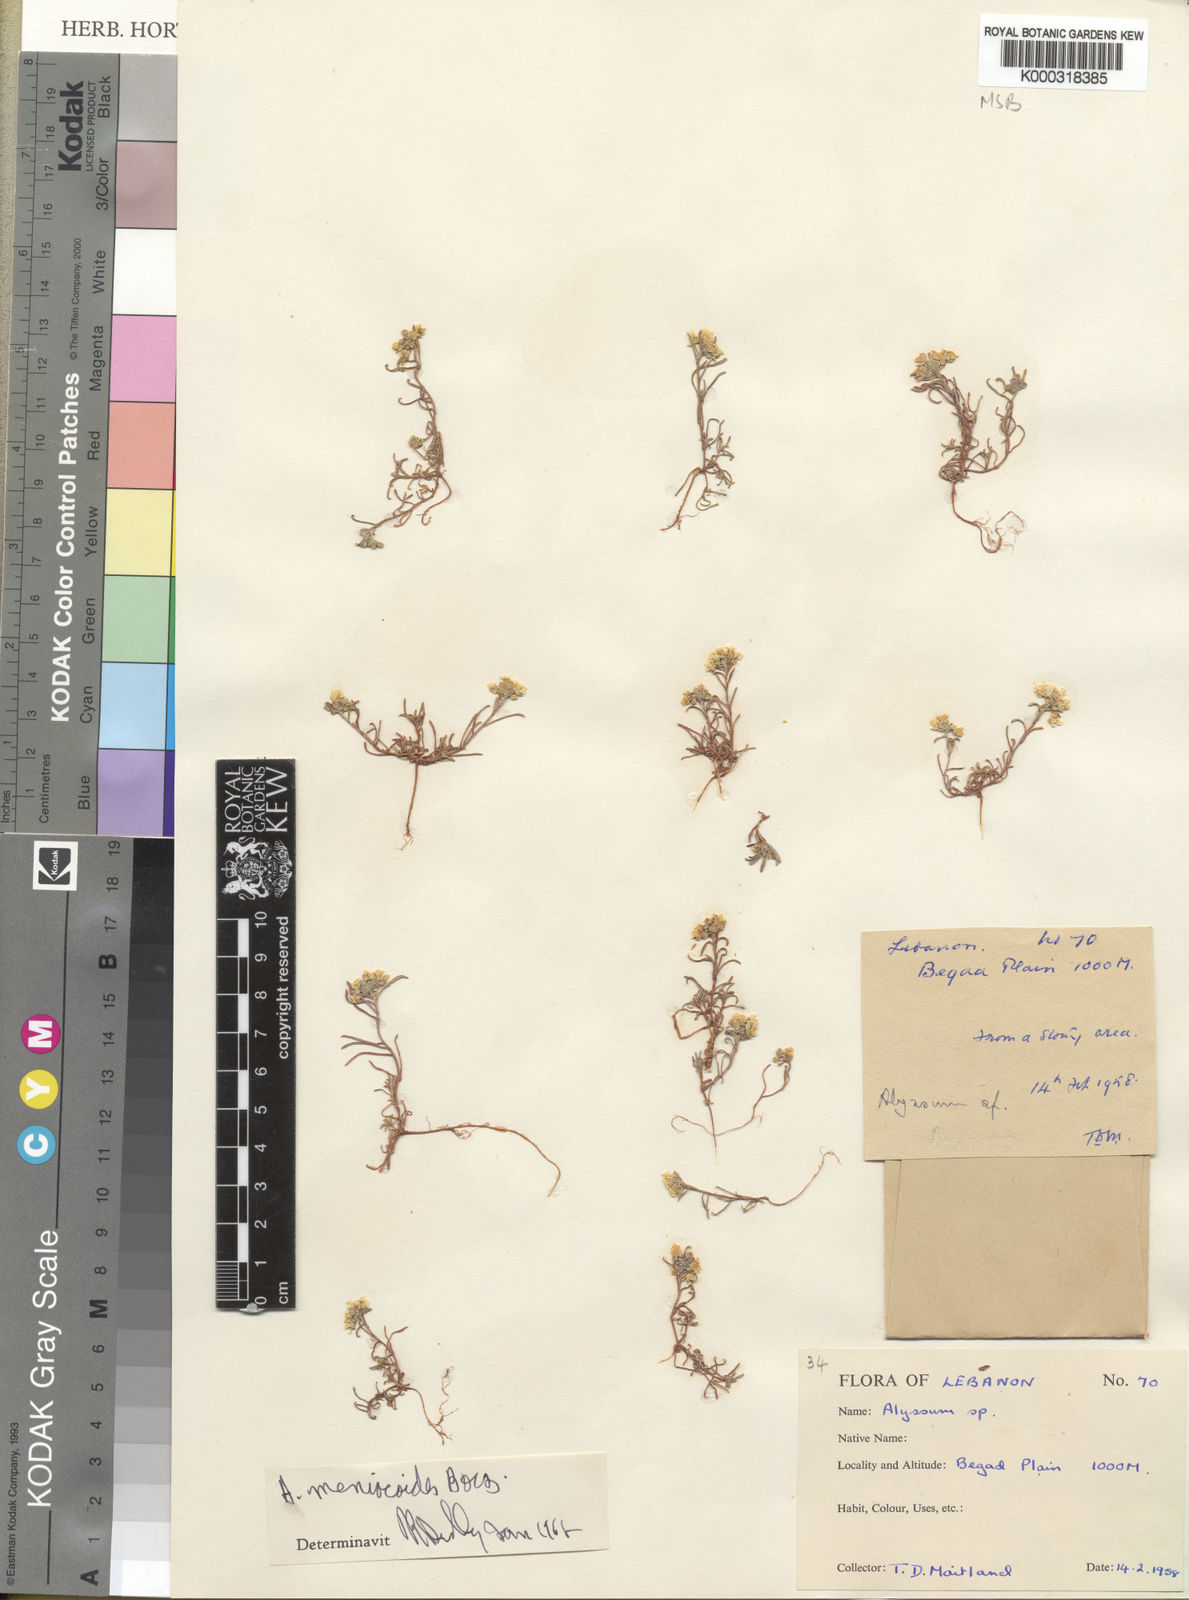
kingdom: Plantae
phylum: Tracheophyta
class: Magnoliopsida
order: Brassicales
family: Brassicaceae
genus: Meniocus
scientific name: Meniocus
